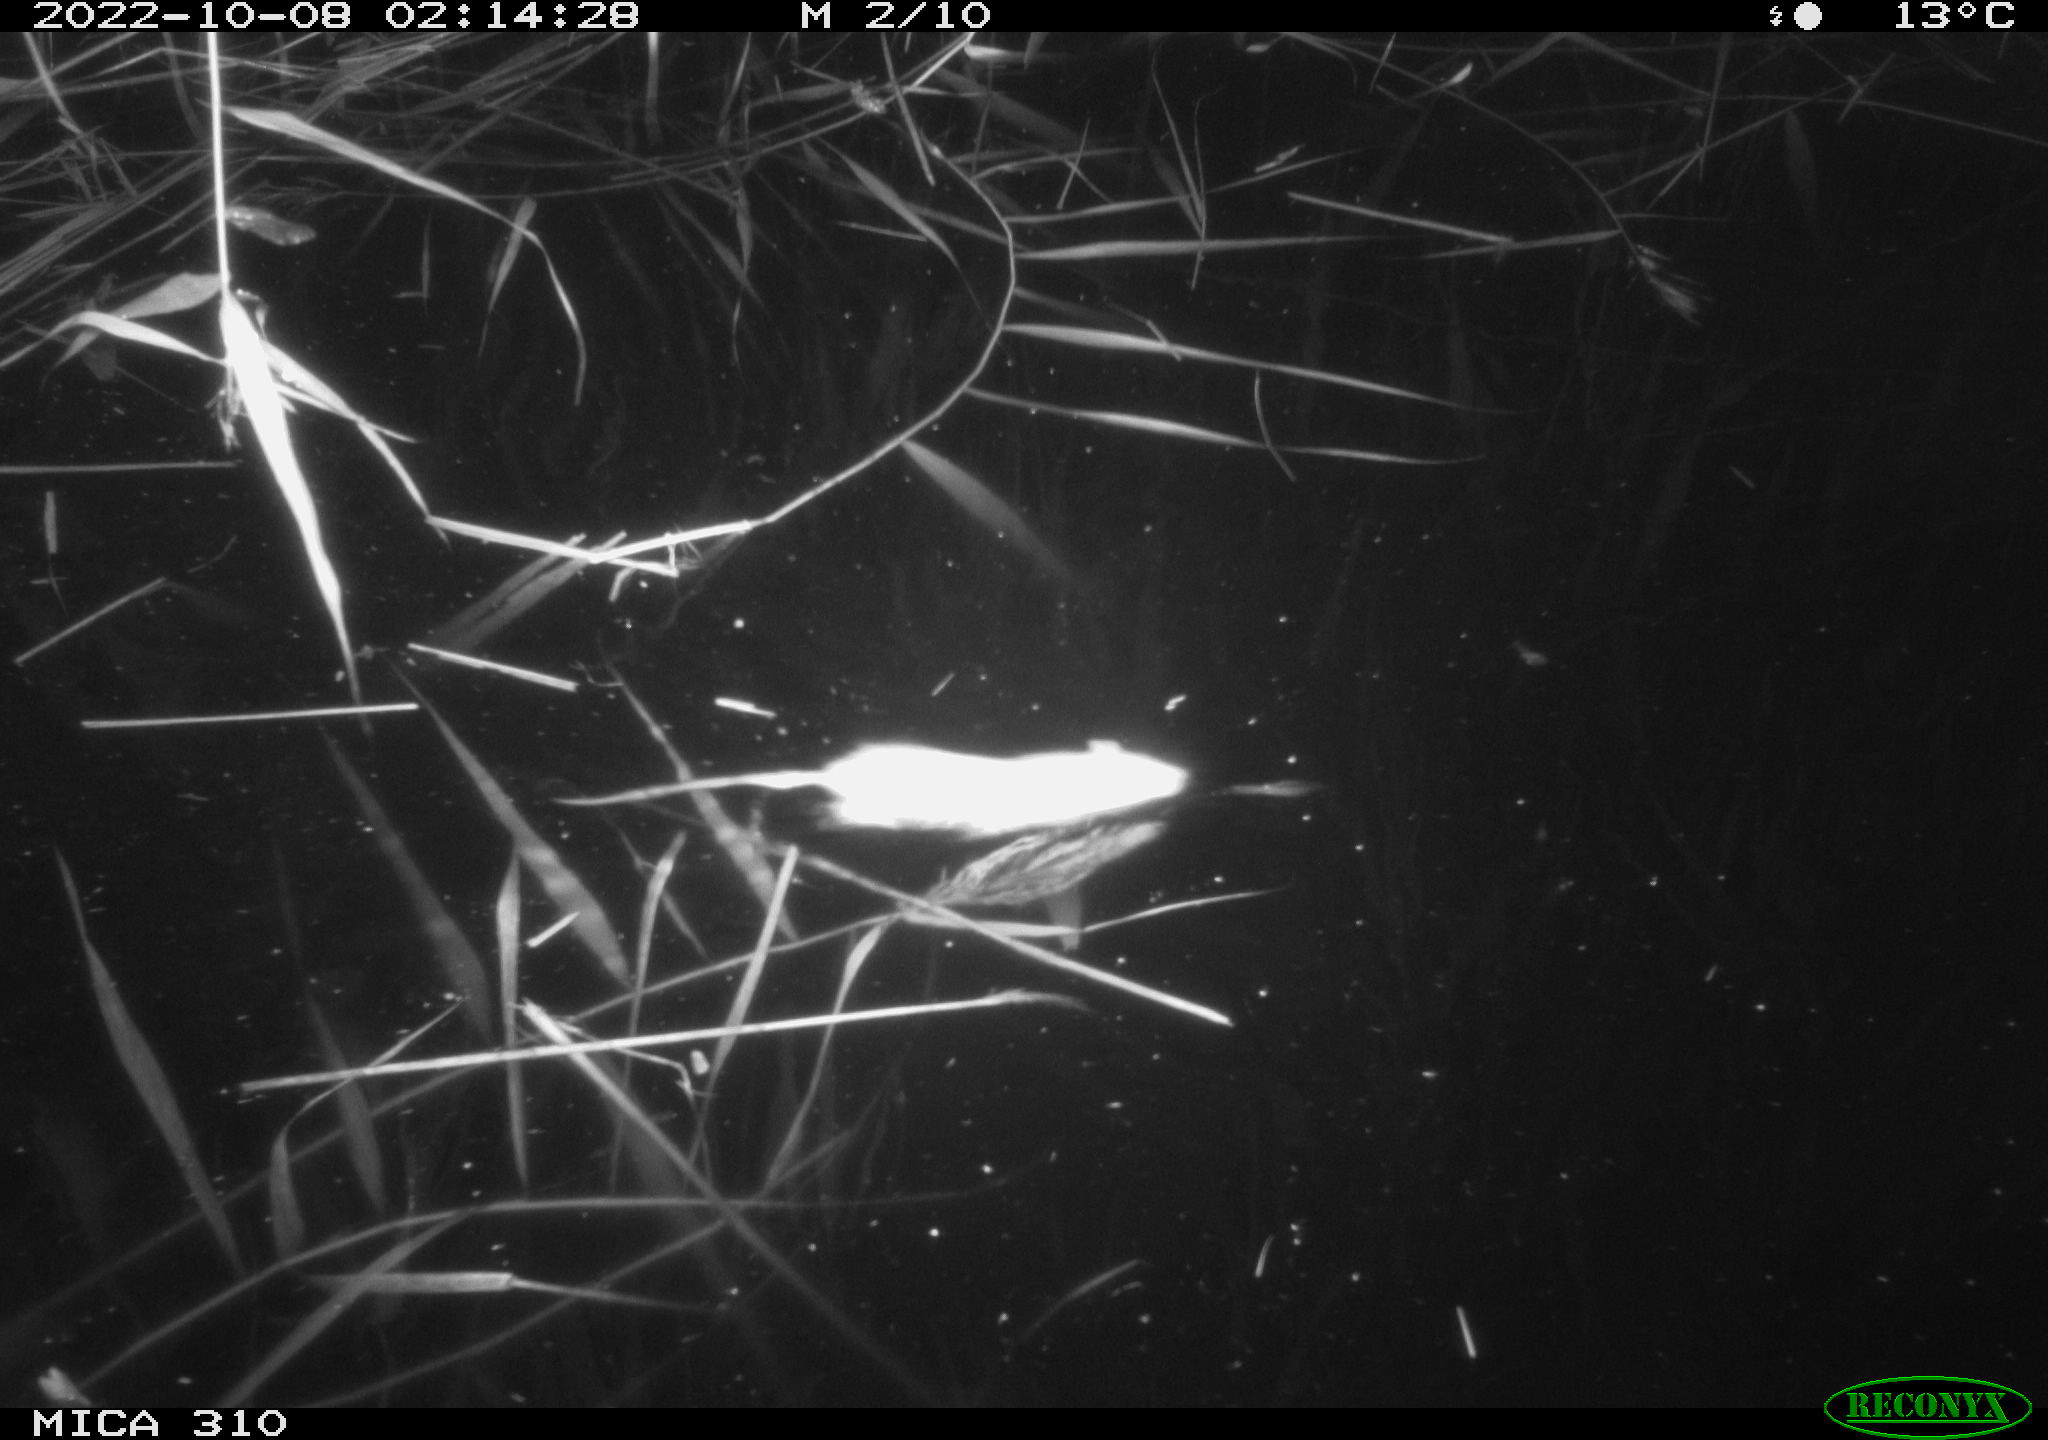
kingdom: Animalia
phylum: Chordata
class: Mammalia
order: Rodentia
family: Muridae
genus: Rattus
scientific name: Rattus norvegicus
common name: Brown rat
